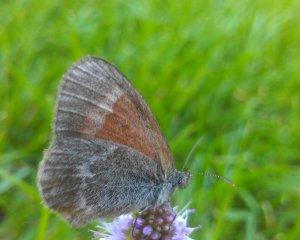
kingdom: Animalia
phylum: Arthropoda
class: Insecta
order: Lepidoptera
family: Nymphalidae
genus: Coenonympha
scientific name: Coenonympha tullia
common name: Large Heath
